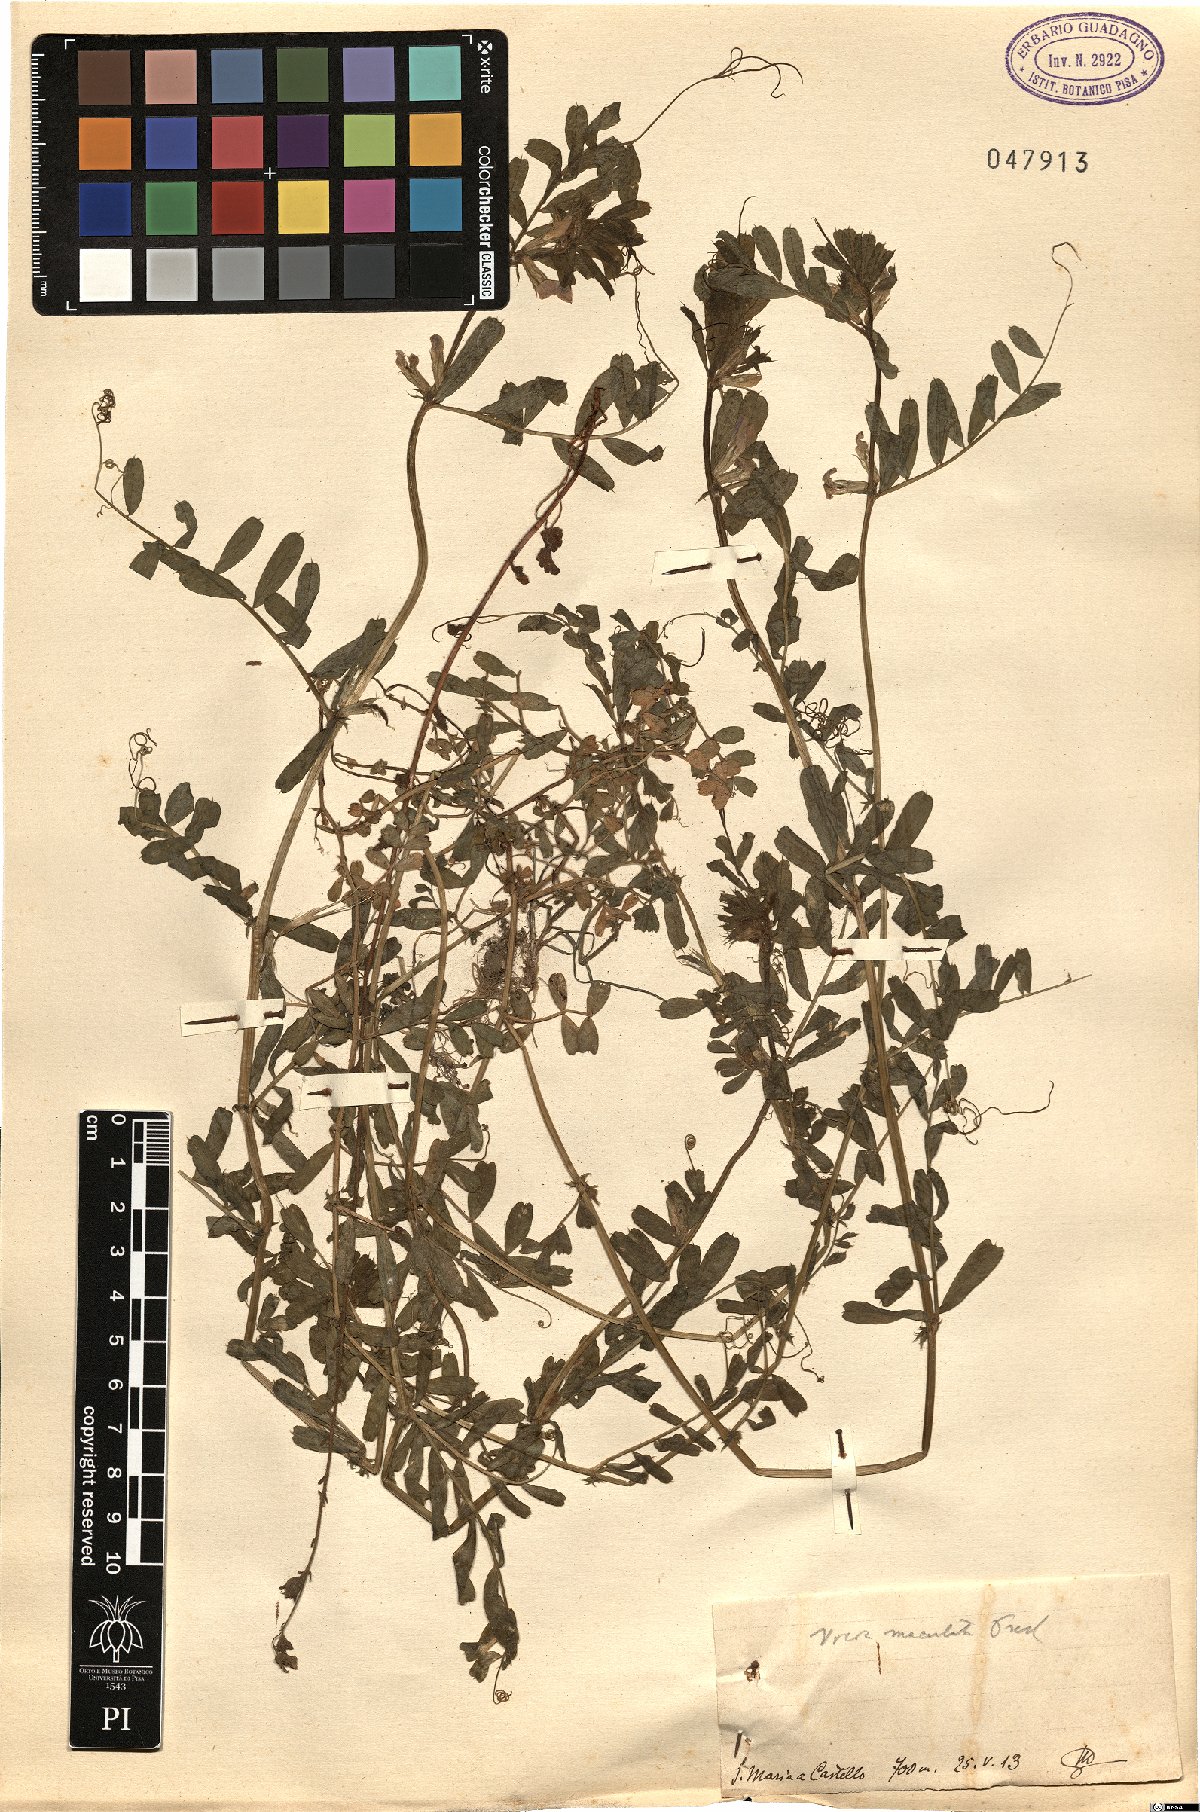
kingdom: Plantae
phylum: Tracheophyta
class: Magnoliopsida
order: Fabales
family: Fabaceae
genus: Vicia
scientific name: Vicia sativa
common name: Garden vetch
